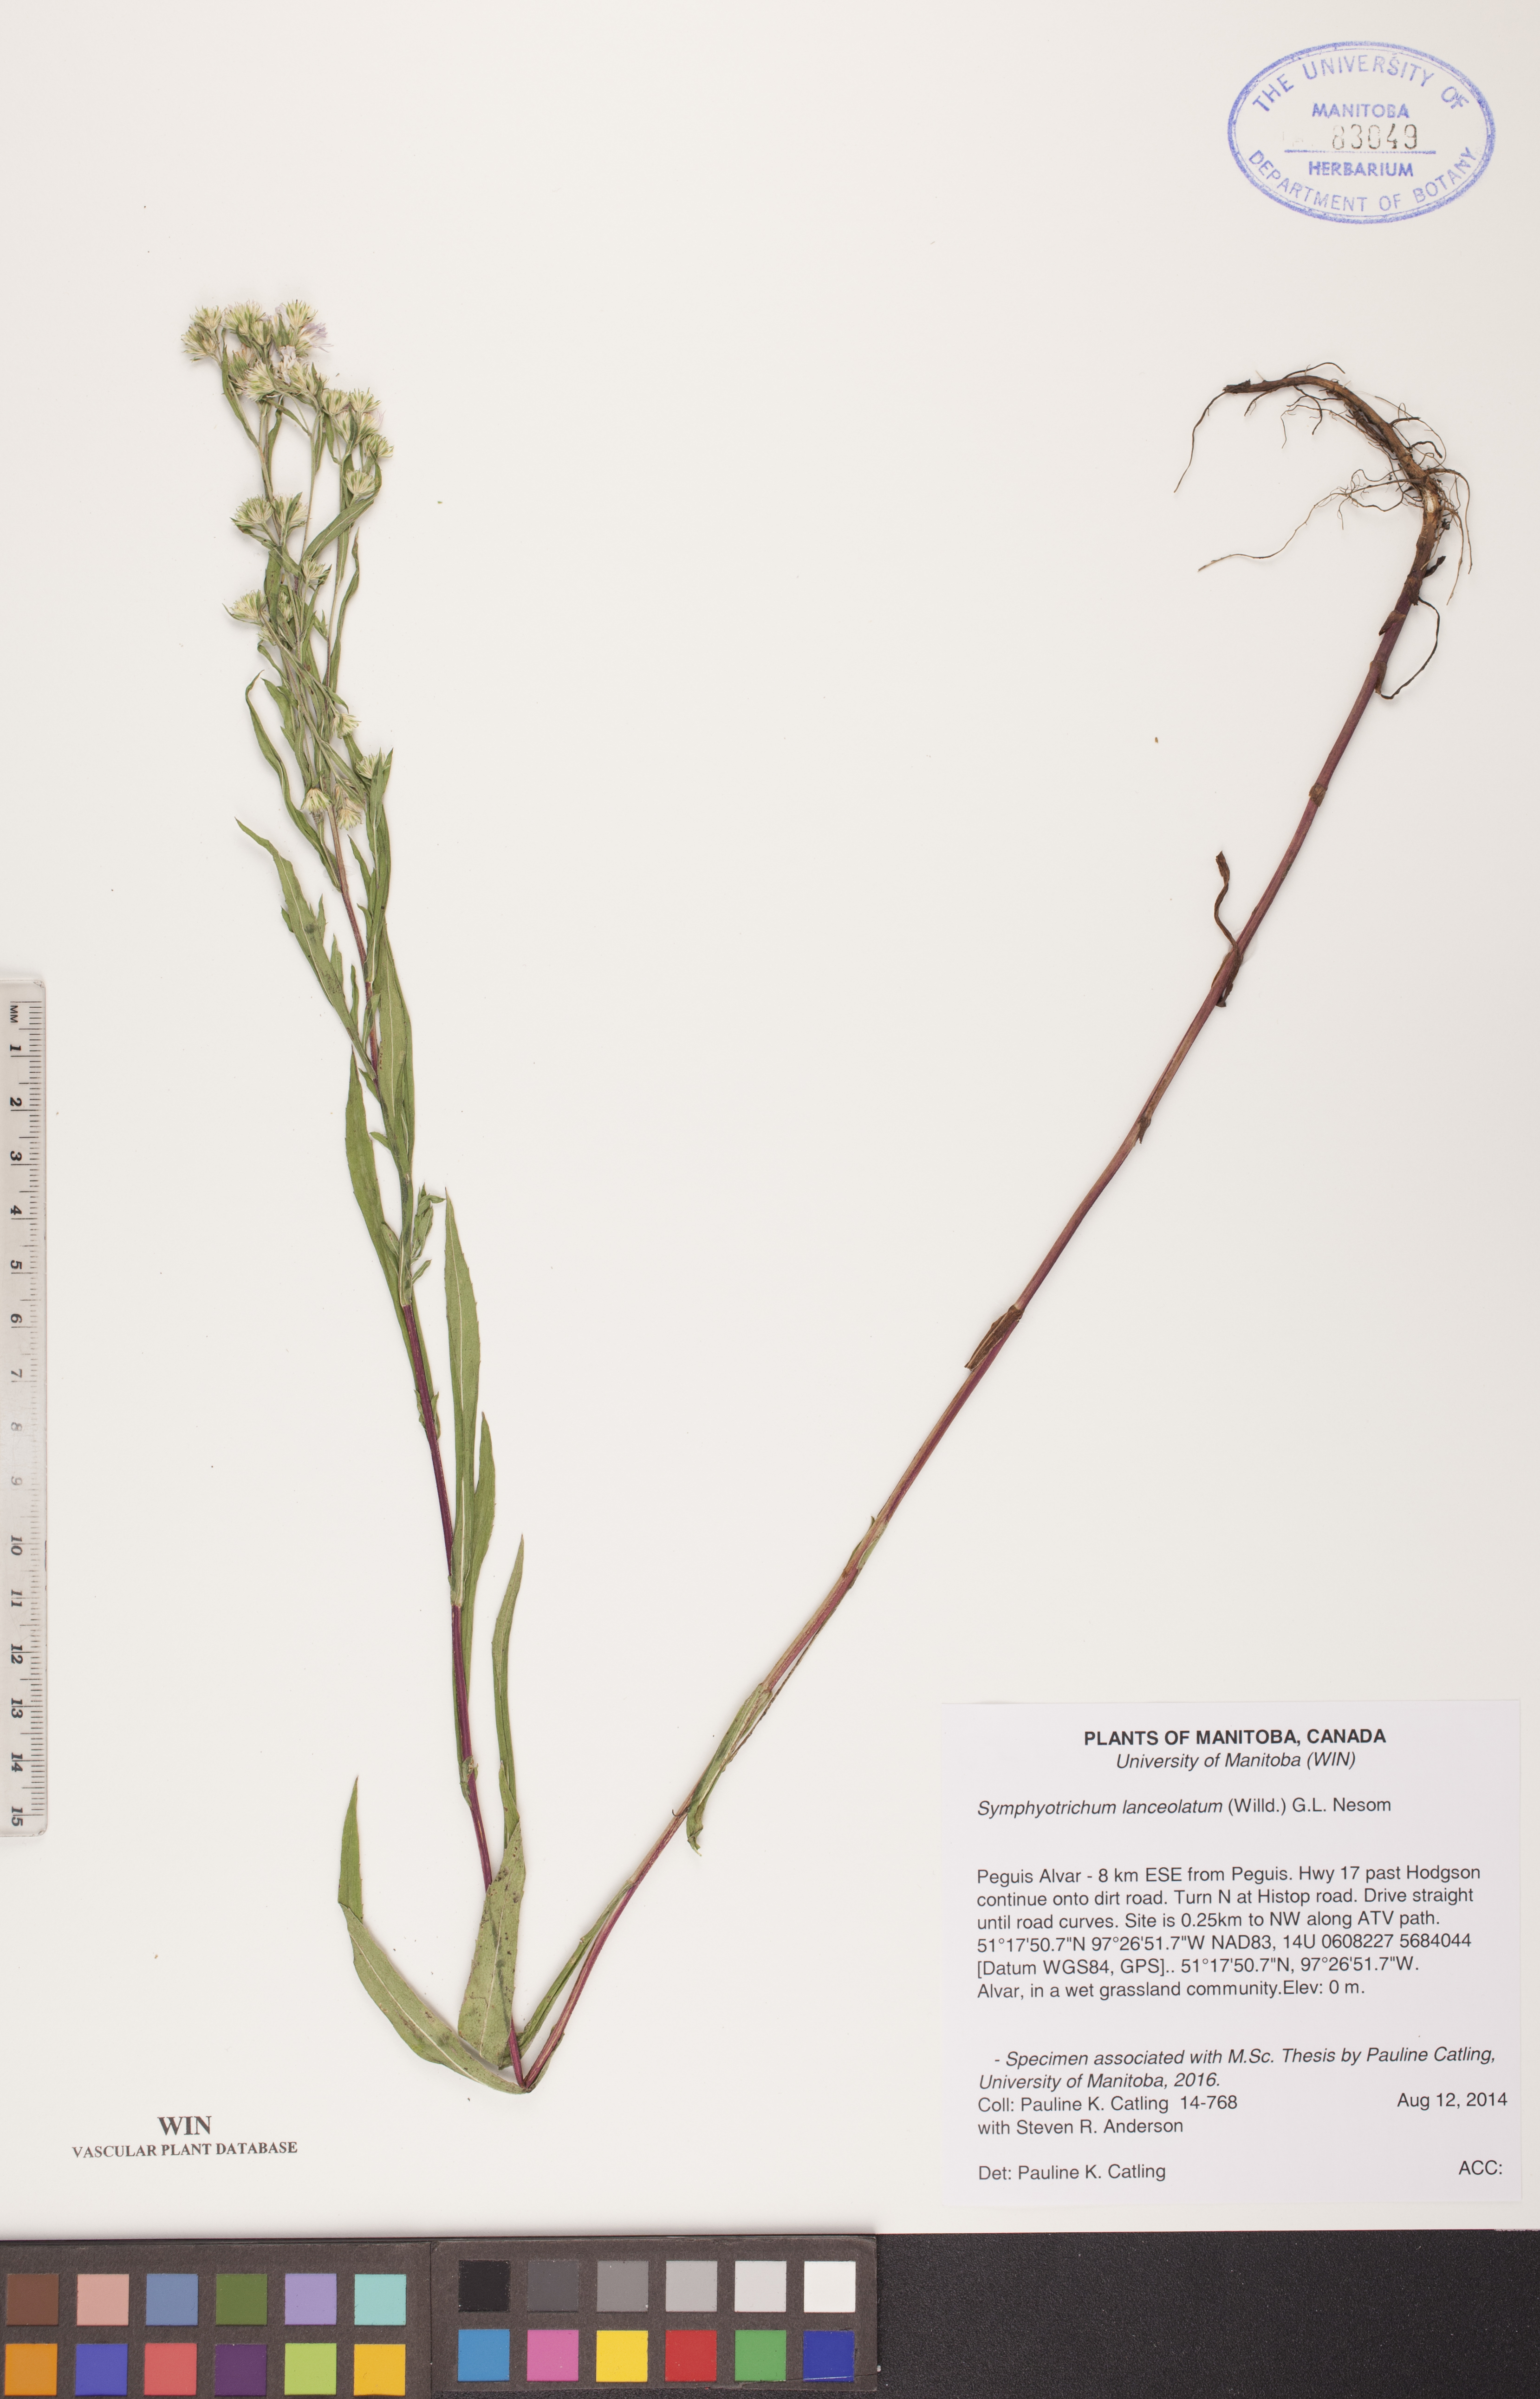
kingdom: Plantae
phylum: Tracheophyta
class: Magnoliopsida
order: Asterales
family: Asteraceae
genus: Symphyotrichum
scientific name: Symphyotrichum lanceolatum
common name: Panicled aster
